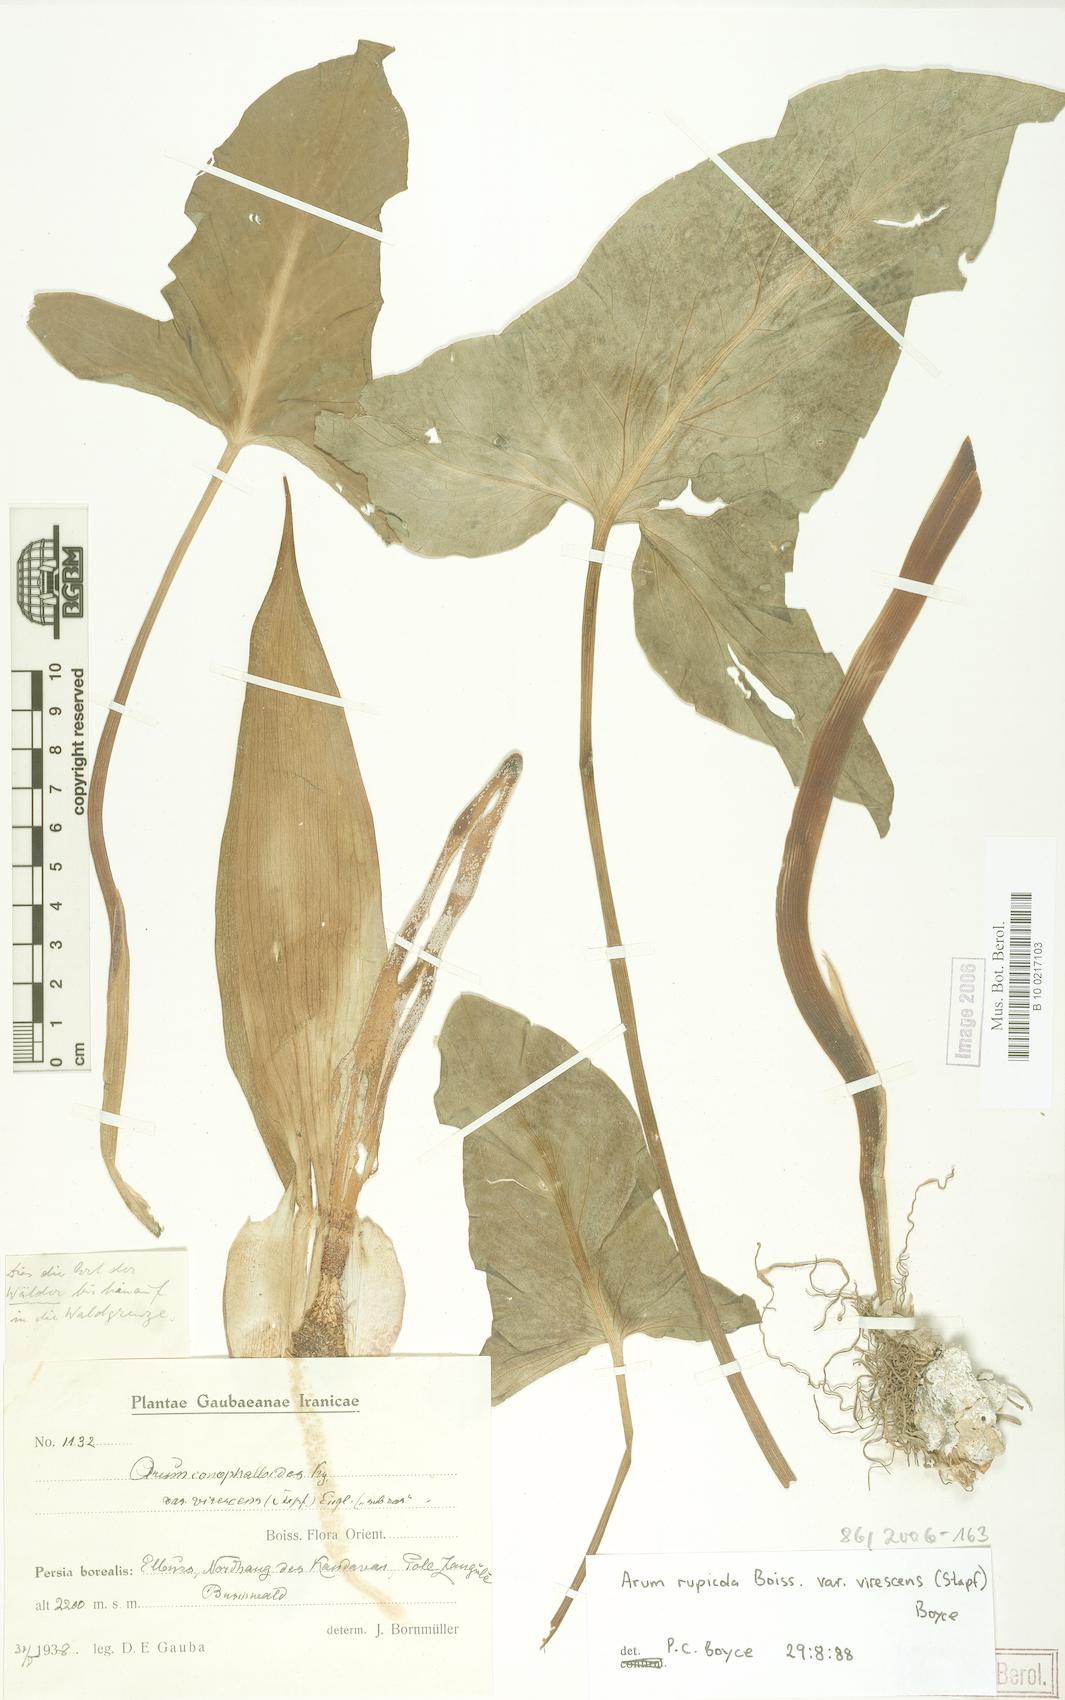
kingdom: Plantae
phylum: Tracheophyta
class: Liliopsida
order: Alismatales
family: Araceae
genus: Arum
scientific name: Arum rupicola
